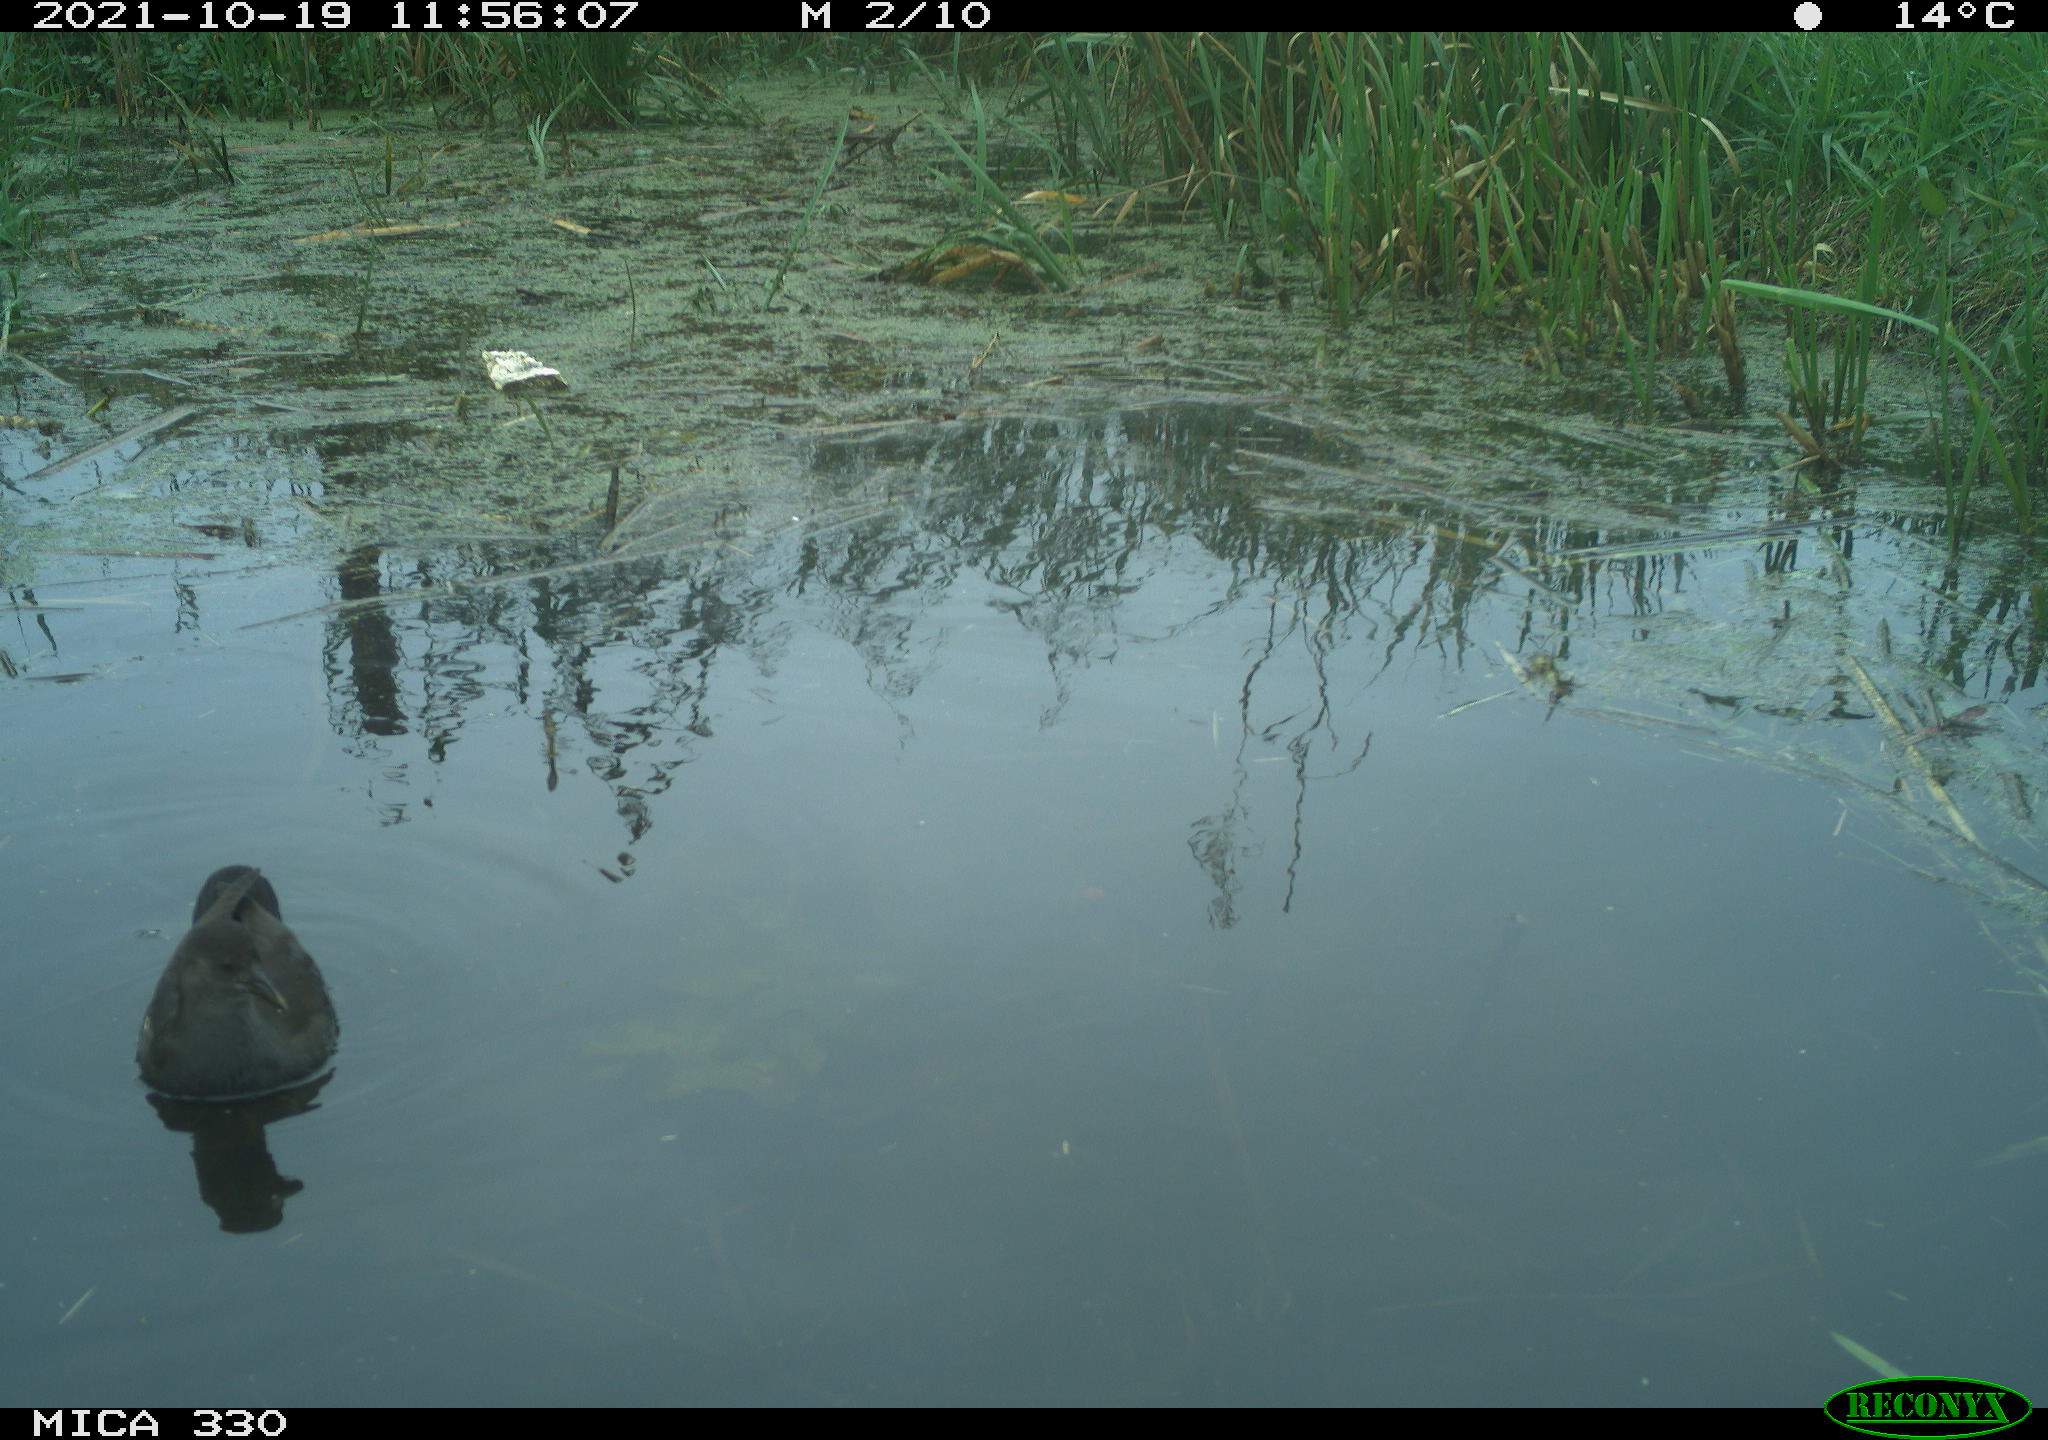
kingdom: Animalia
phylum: Chordata
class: Aves
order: Gruiformes
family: Rallidae
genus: Gallinula
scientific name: Gallinula chloropus
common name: Common moorhen
